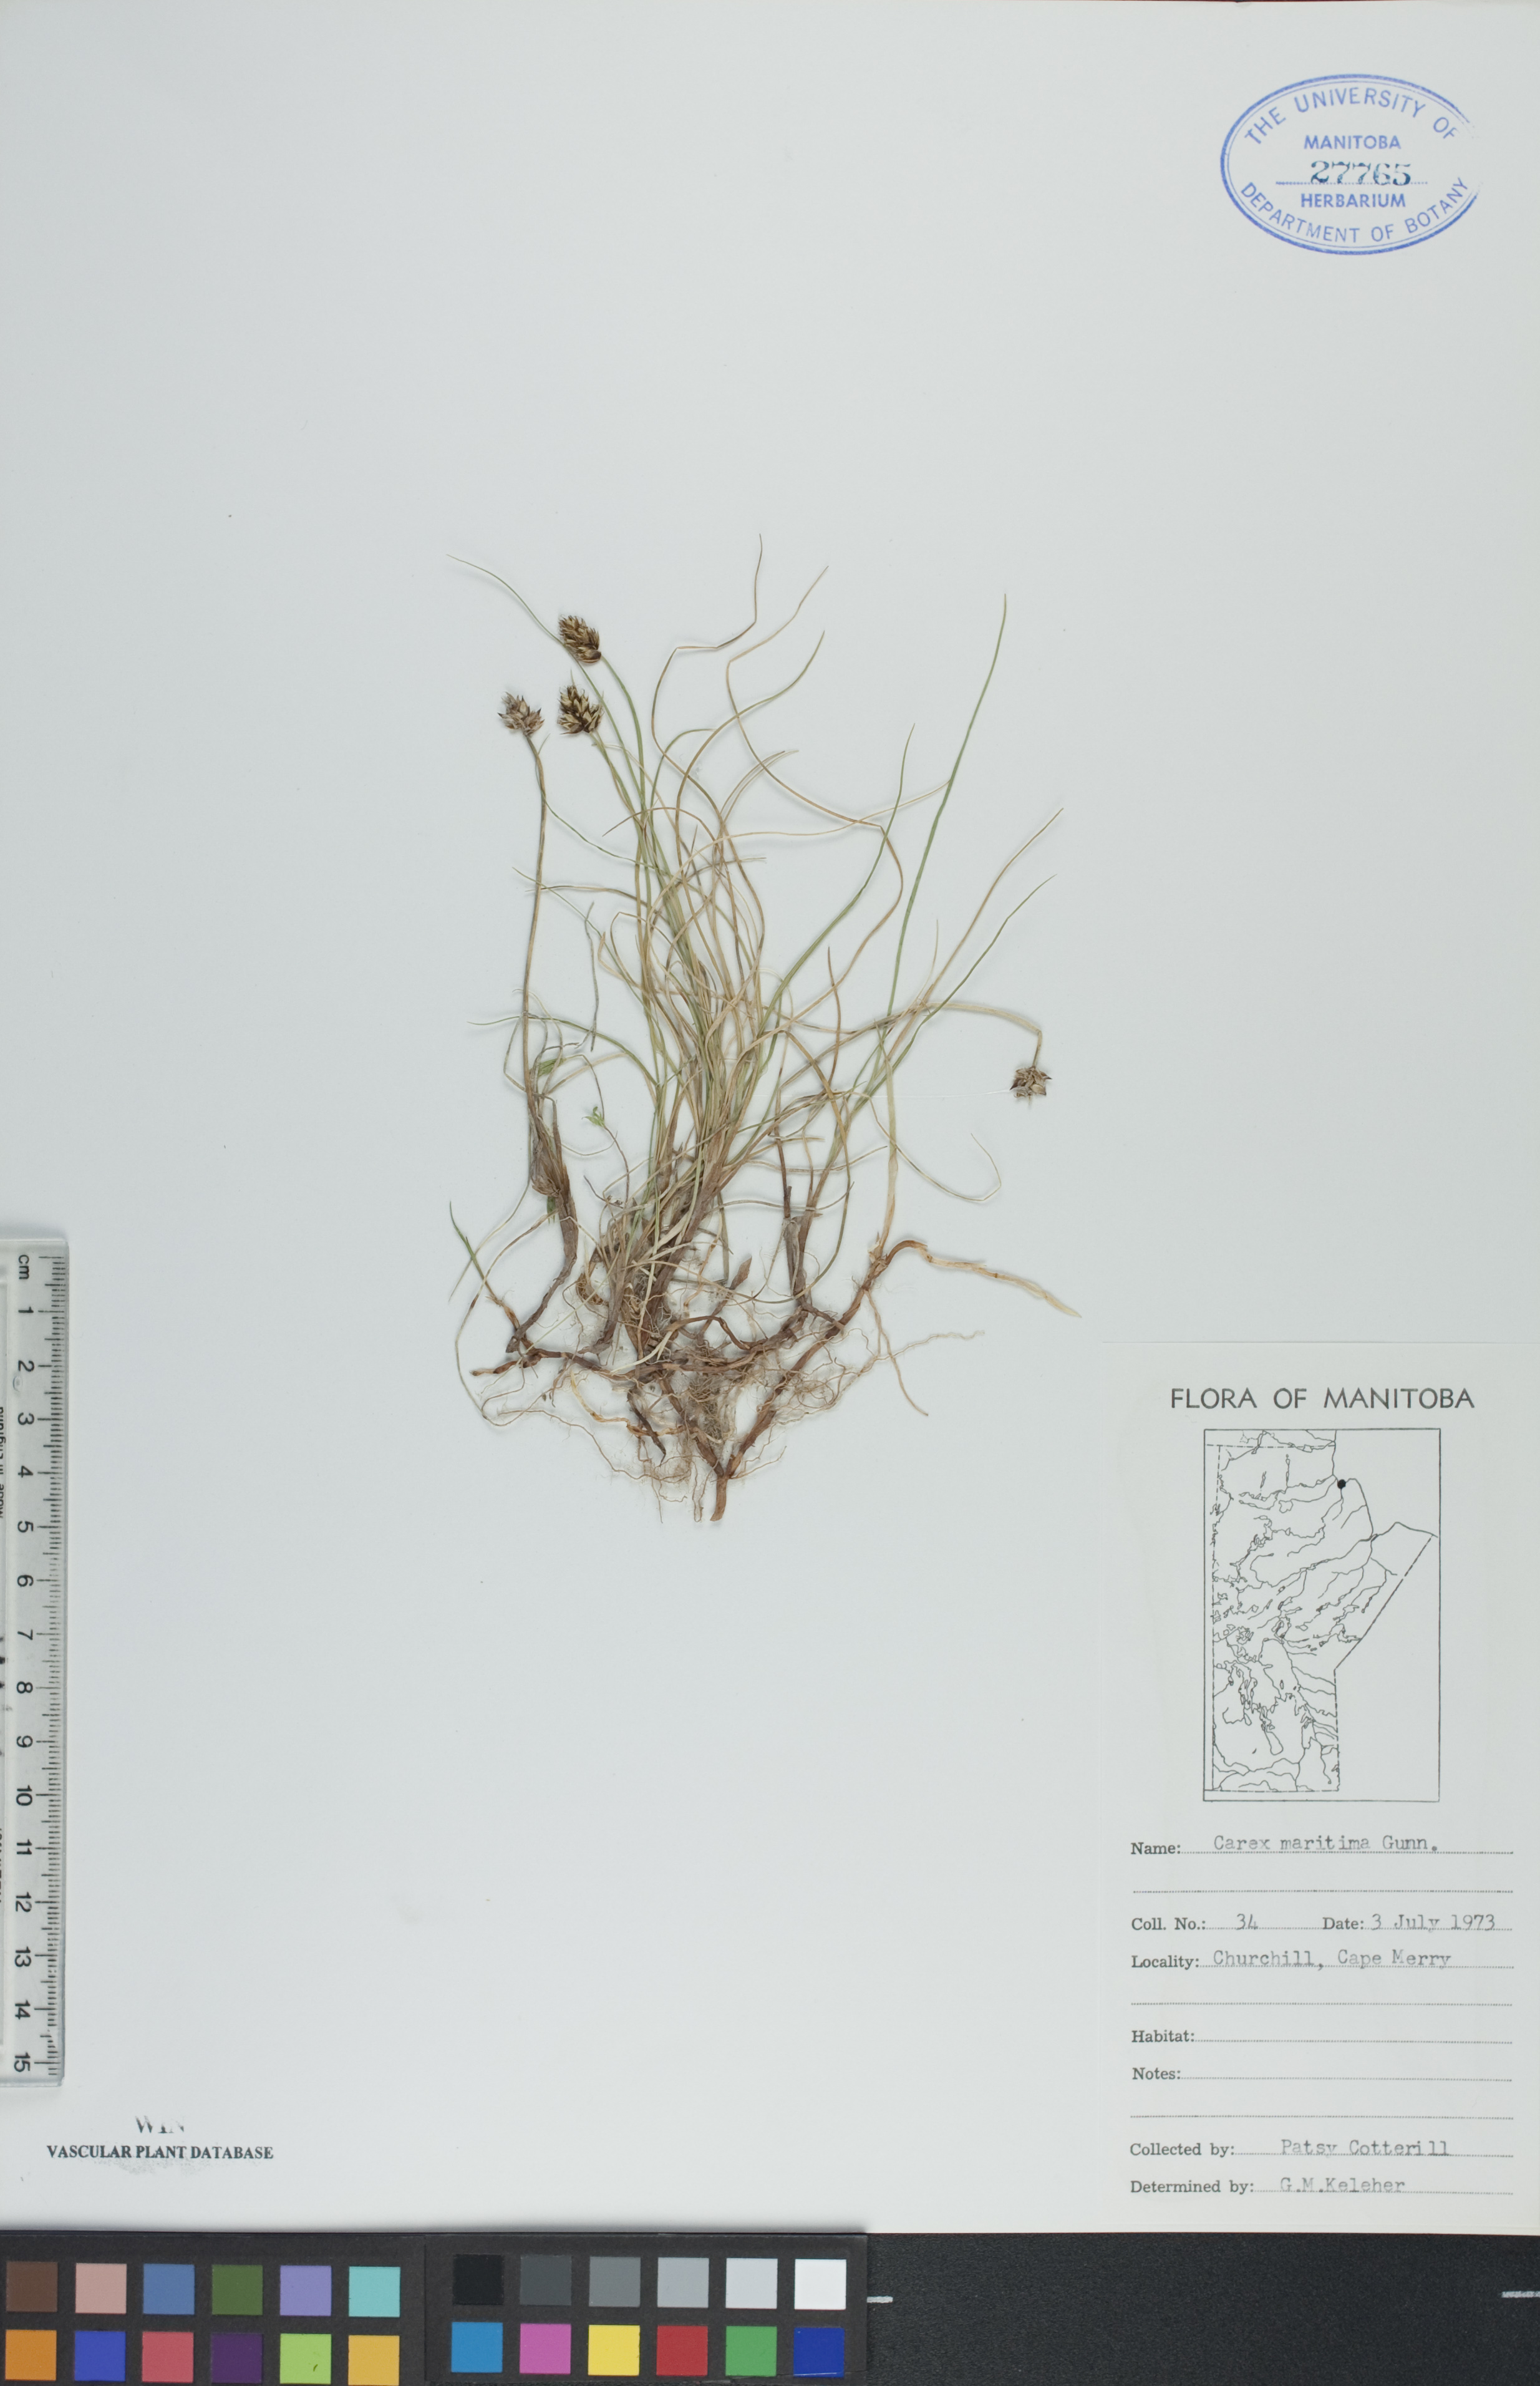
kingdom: Plantae
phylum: Tracheophyta
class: Liliopsida
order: Poales
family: Cyperaceae
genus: Carex
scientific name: Carex maritima
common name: Curved sedge
